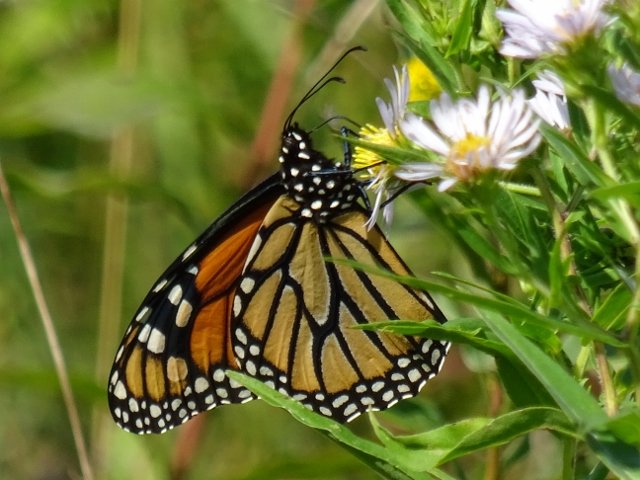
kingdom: Animalia
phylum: Arthropoda
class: Insecta
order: Lepidoptera
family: Nymphalidae
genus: Danaus
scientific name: Danaus plexippus
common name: Monarch
